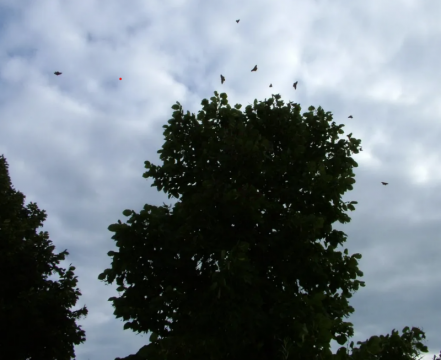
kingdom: Animalia
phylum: Arthropoda
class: Insecta
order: Lepidoptera
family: Nymphalidae
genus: Nymphalis
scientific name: Nymphalis antiopa
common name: Mourning Cloak
